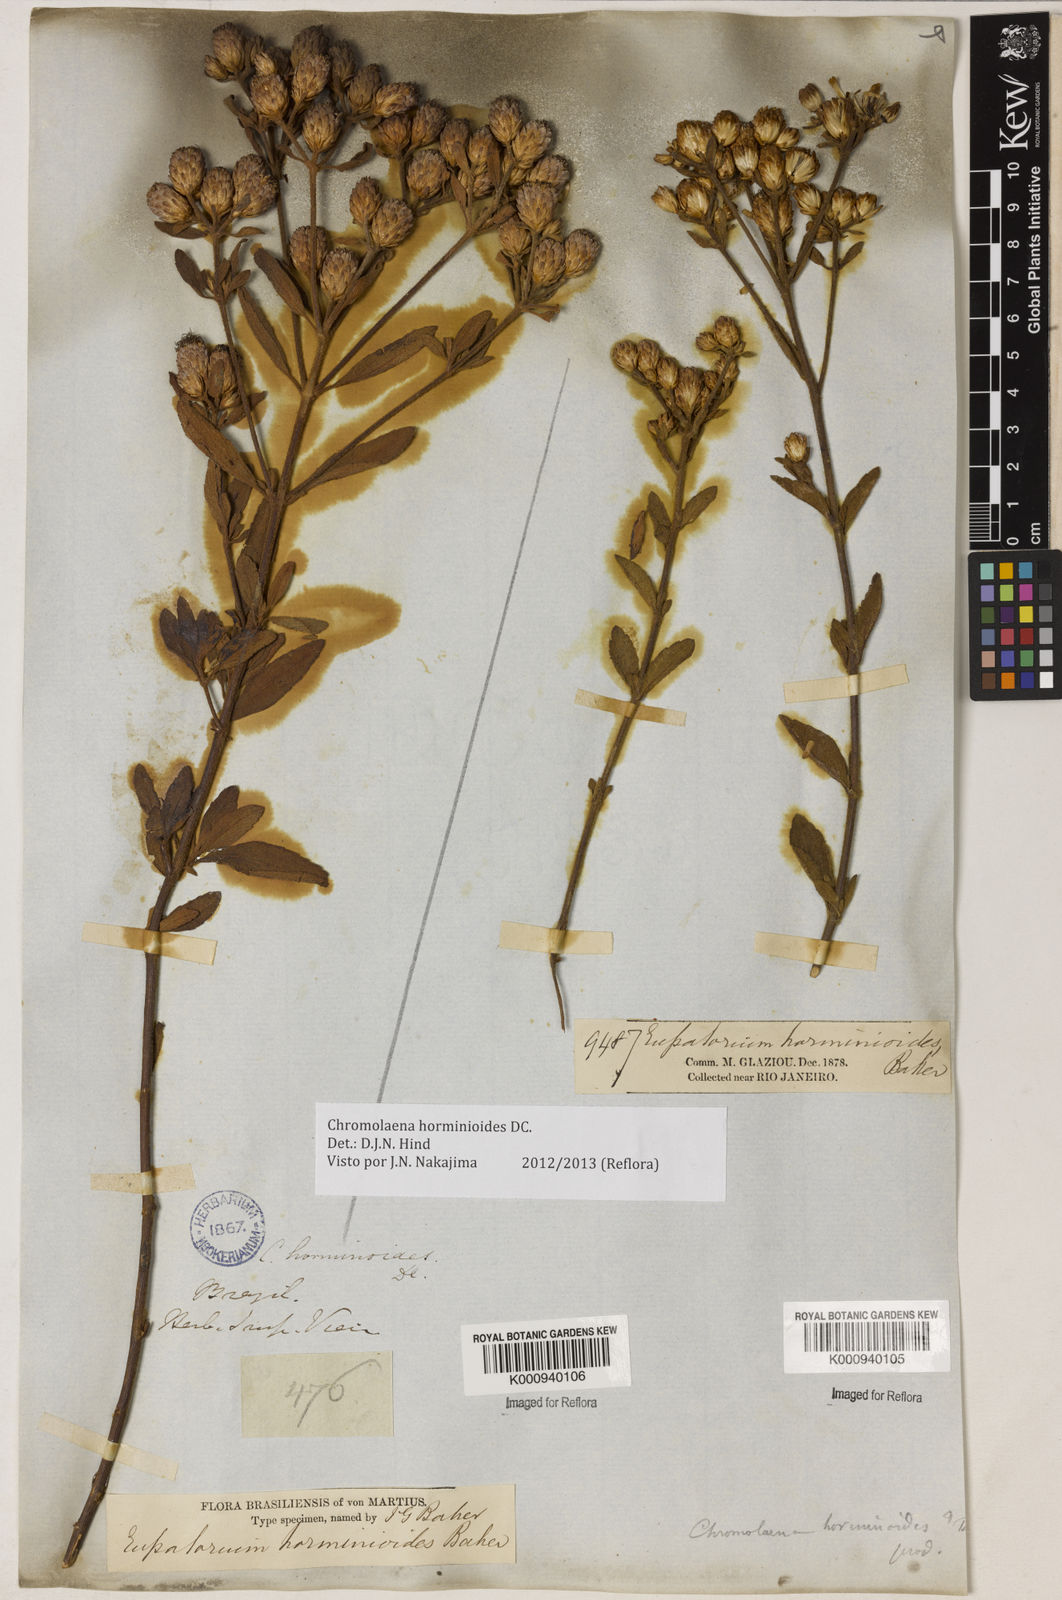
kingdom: Plantae
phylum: Tracheophyta
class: Magnoliopsida
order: Asterales
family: Asteraceae
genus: Chromolaena
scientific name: Chromolaena horminoides
